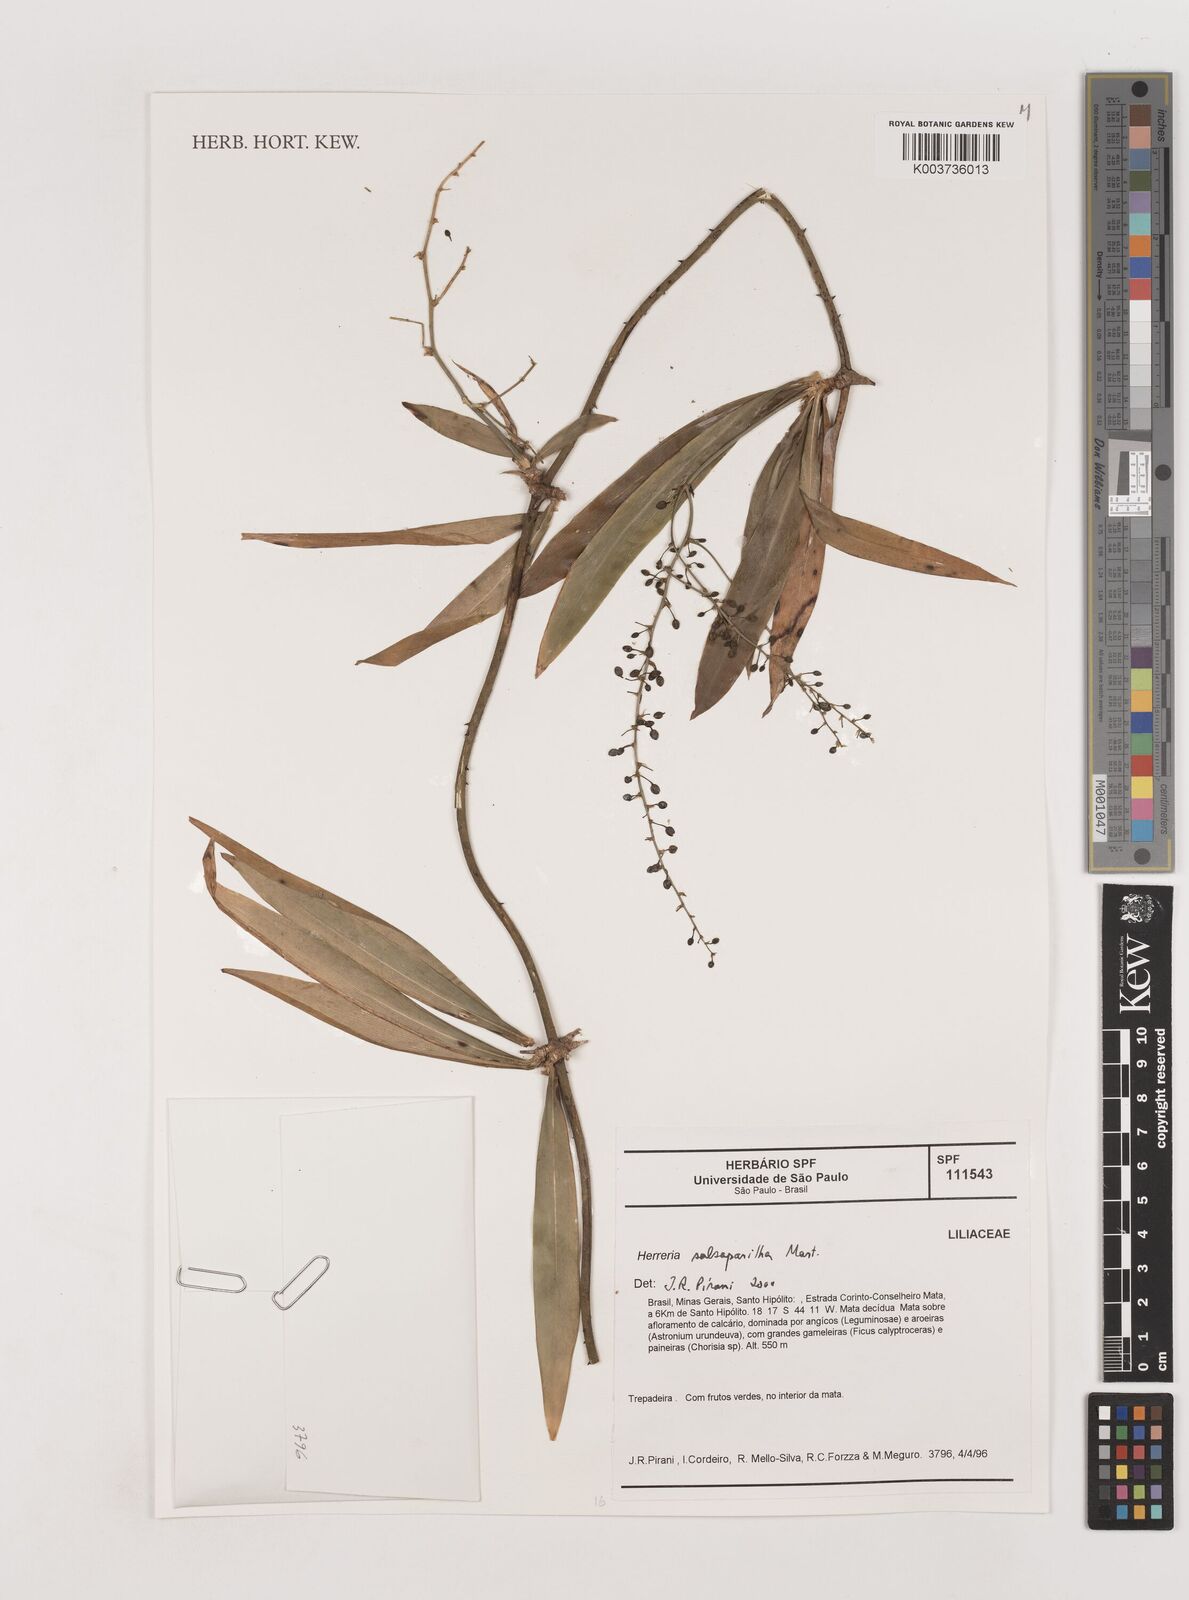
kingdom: Plantae
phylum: Tracheophyta
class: Liliopsida
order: Asparagales
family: Asparagaceae
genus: Herreria
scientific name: Herreria salsaparilha
